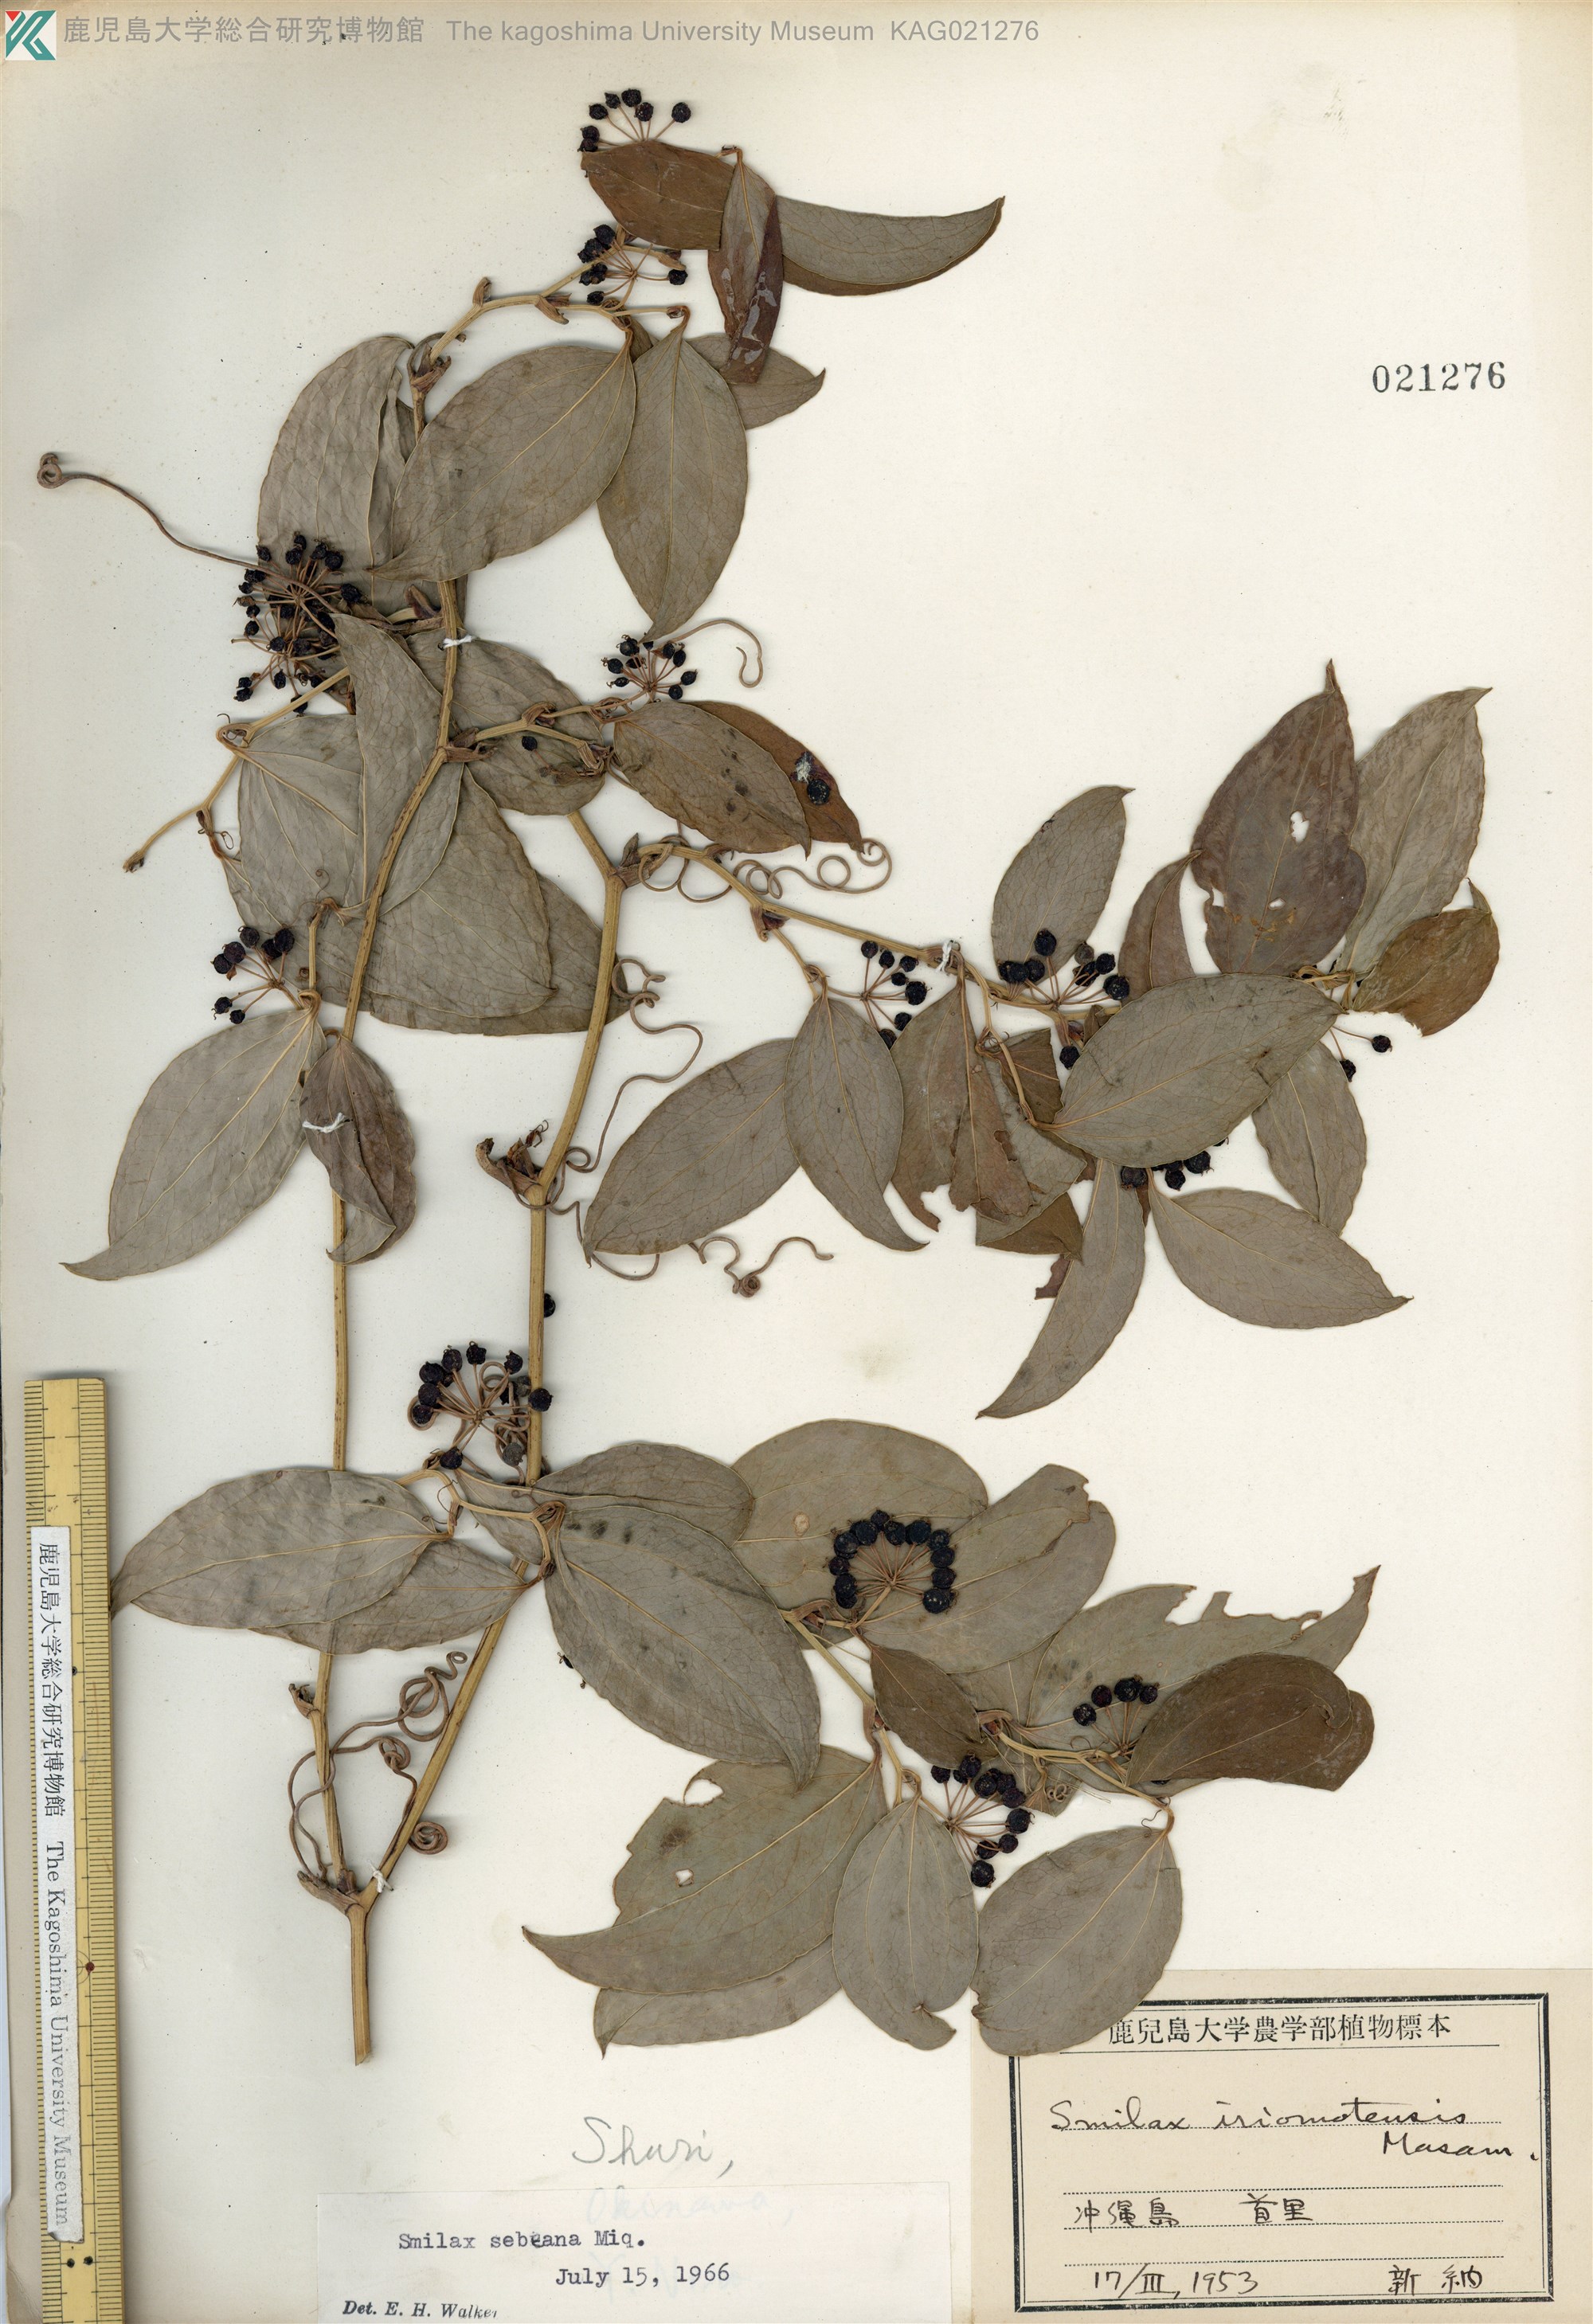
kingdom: Plantae
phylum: Tracheophyta
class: Liliopsida
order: Liliales
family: Smilacaceae
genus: Smilax
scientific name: Smilax sebeana
